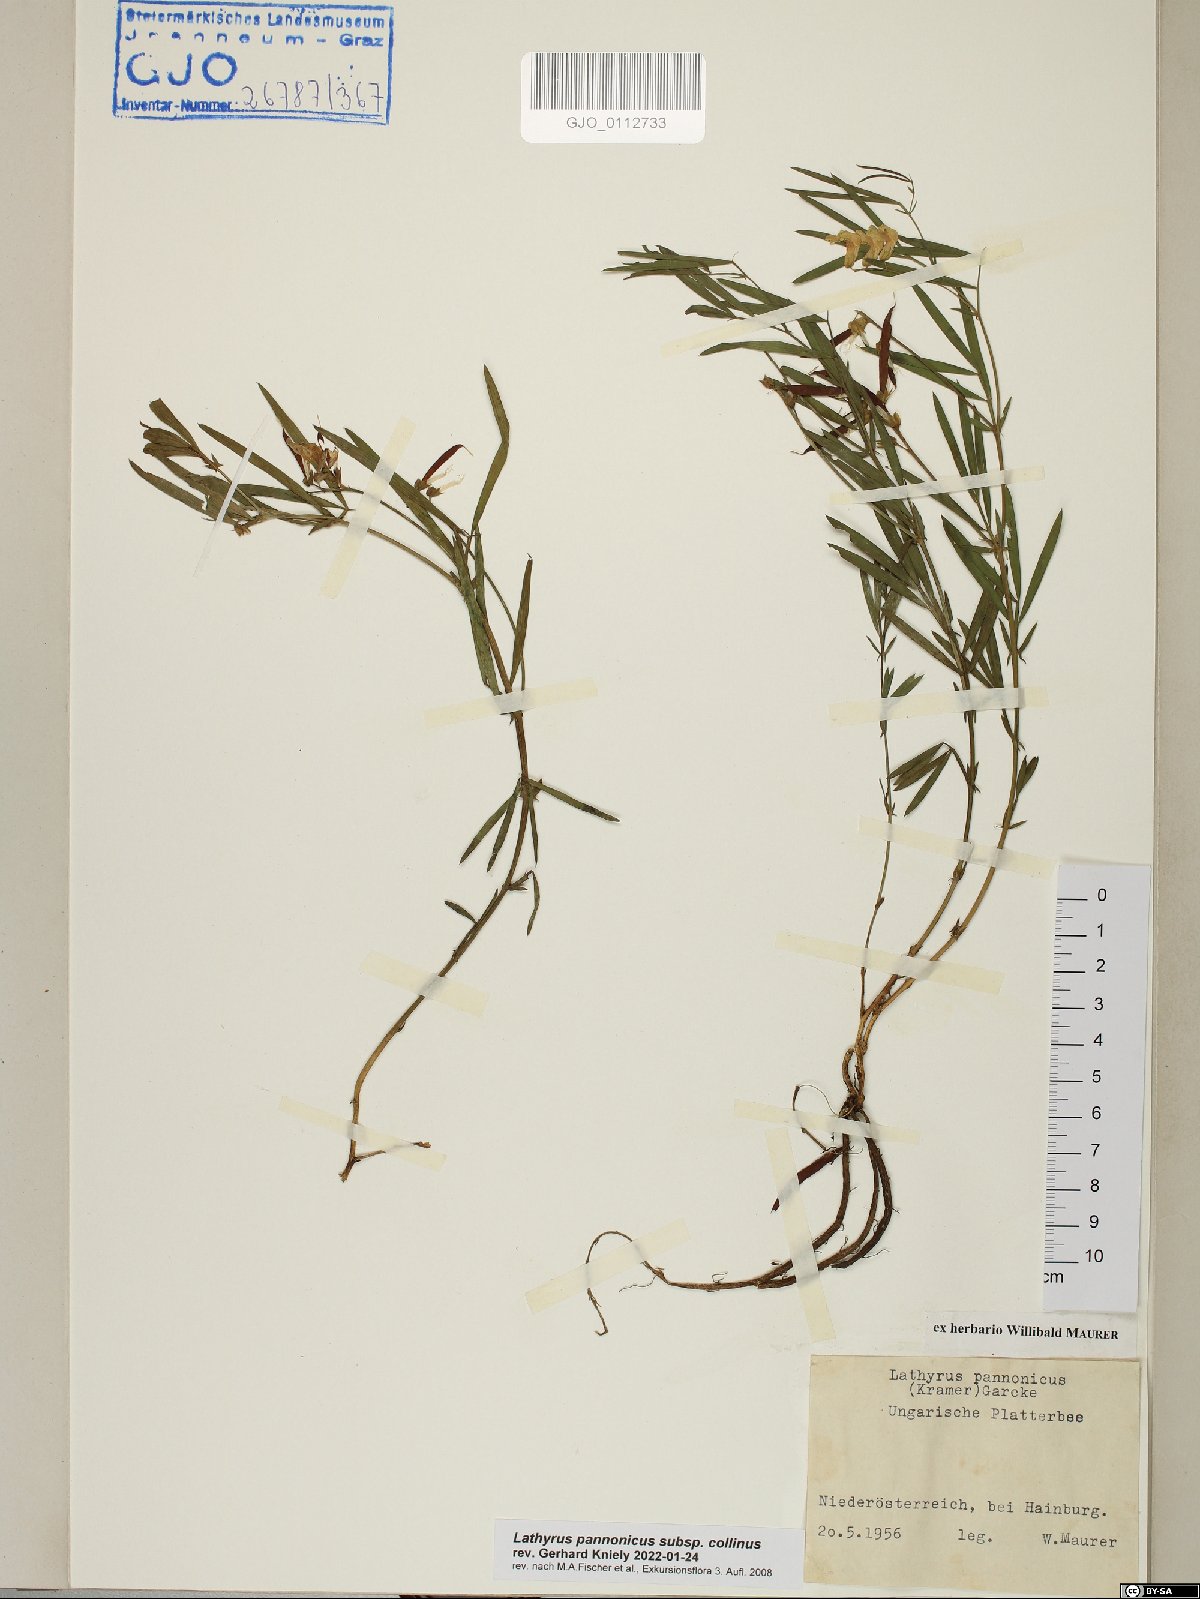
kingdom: Plantae
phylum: Tracheophyta
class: Magnoliopsida
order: Fabales
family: Fabaceae
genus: Lathyrus
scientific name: Lathyrus pannonicus
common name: Pea
